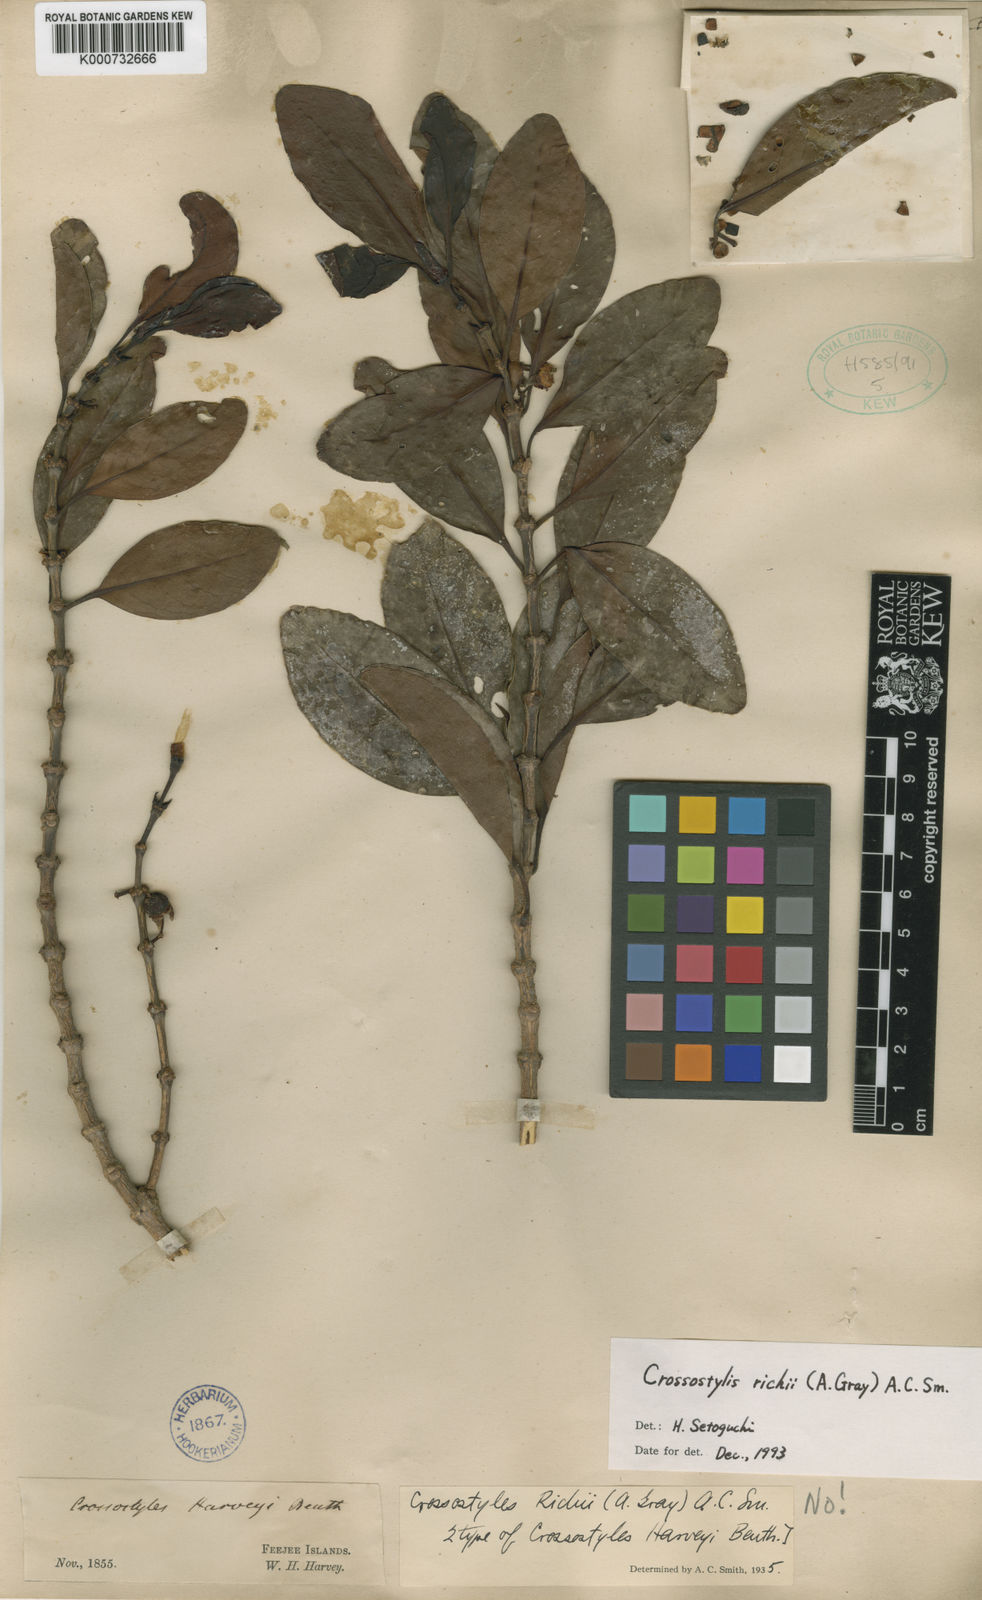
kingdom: Plantae
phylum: Tracheophyta
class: Magnoliopsida
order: Malpighiales
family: Rhizophoraceae
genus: Crossostylis
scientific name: Crossostylis richii
